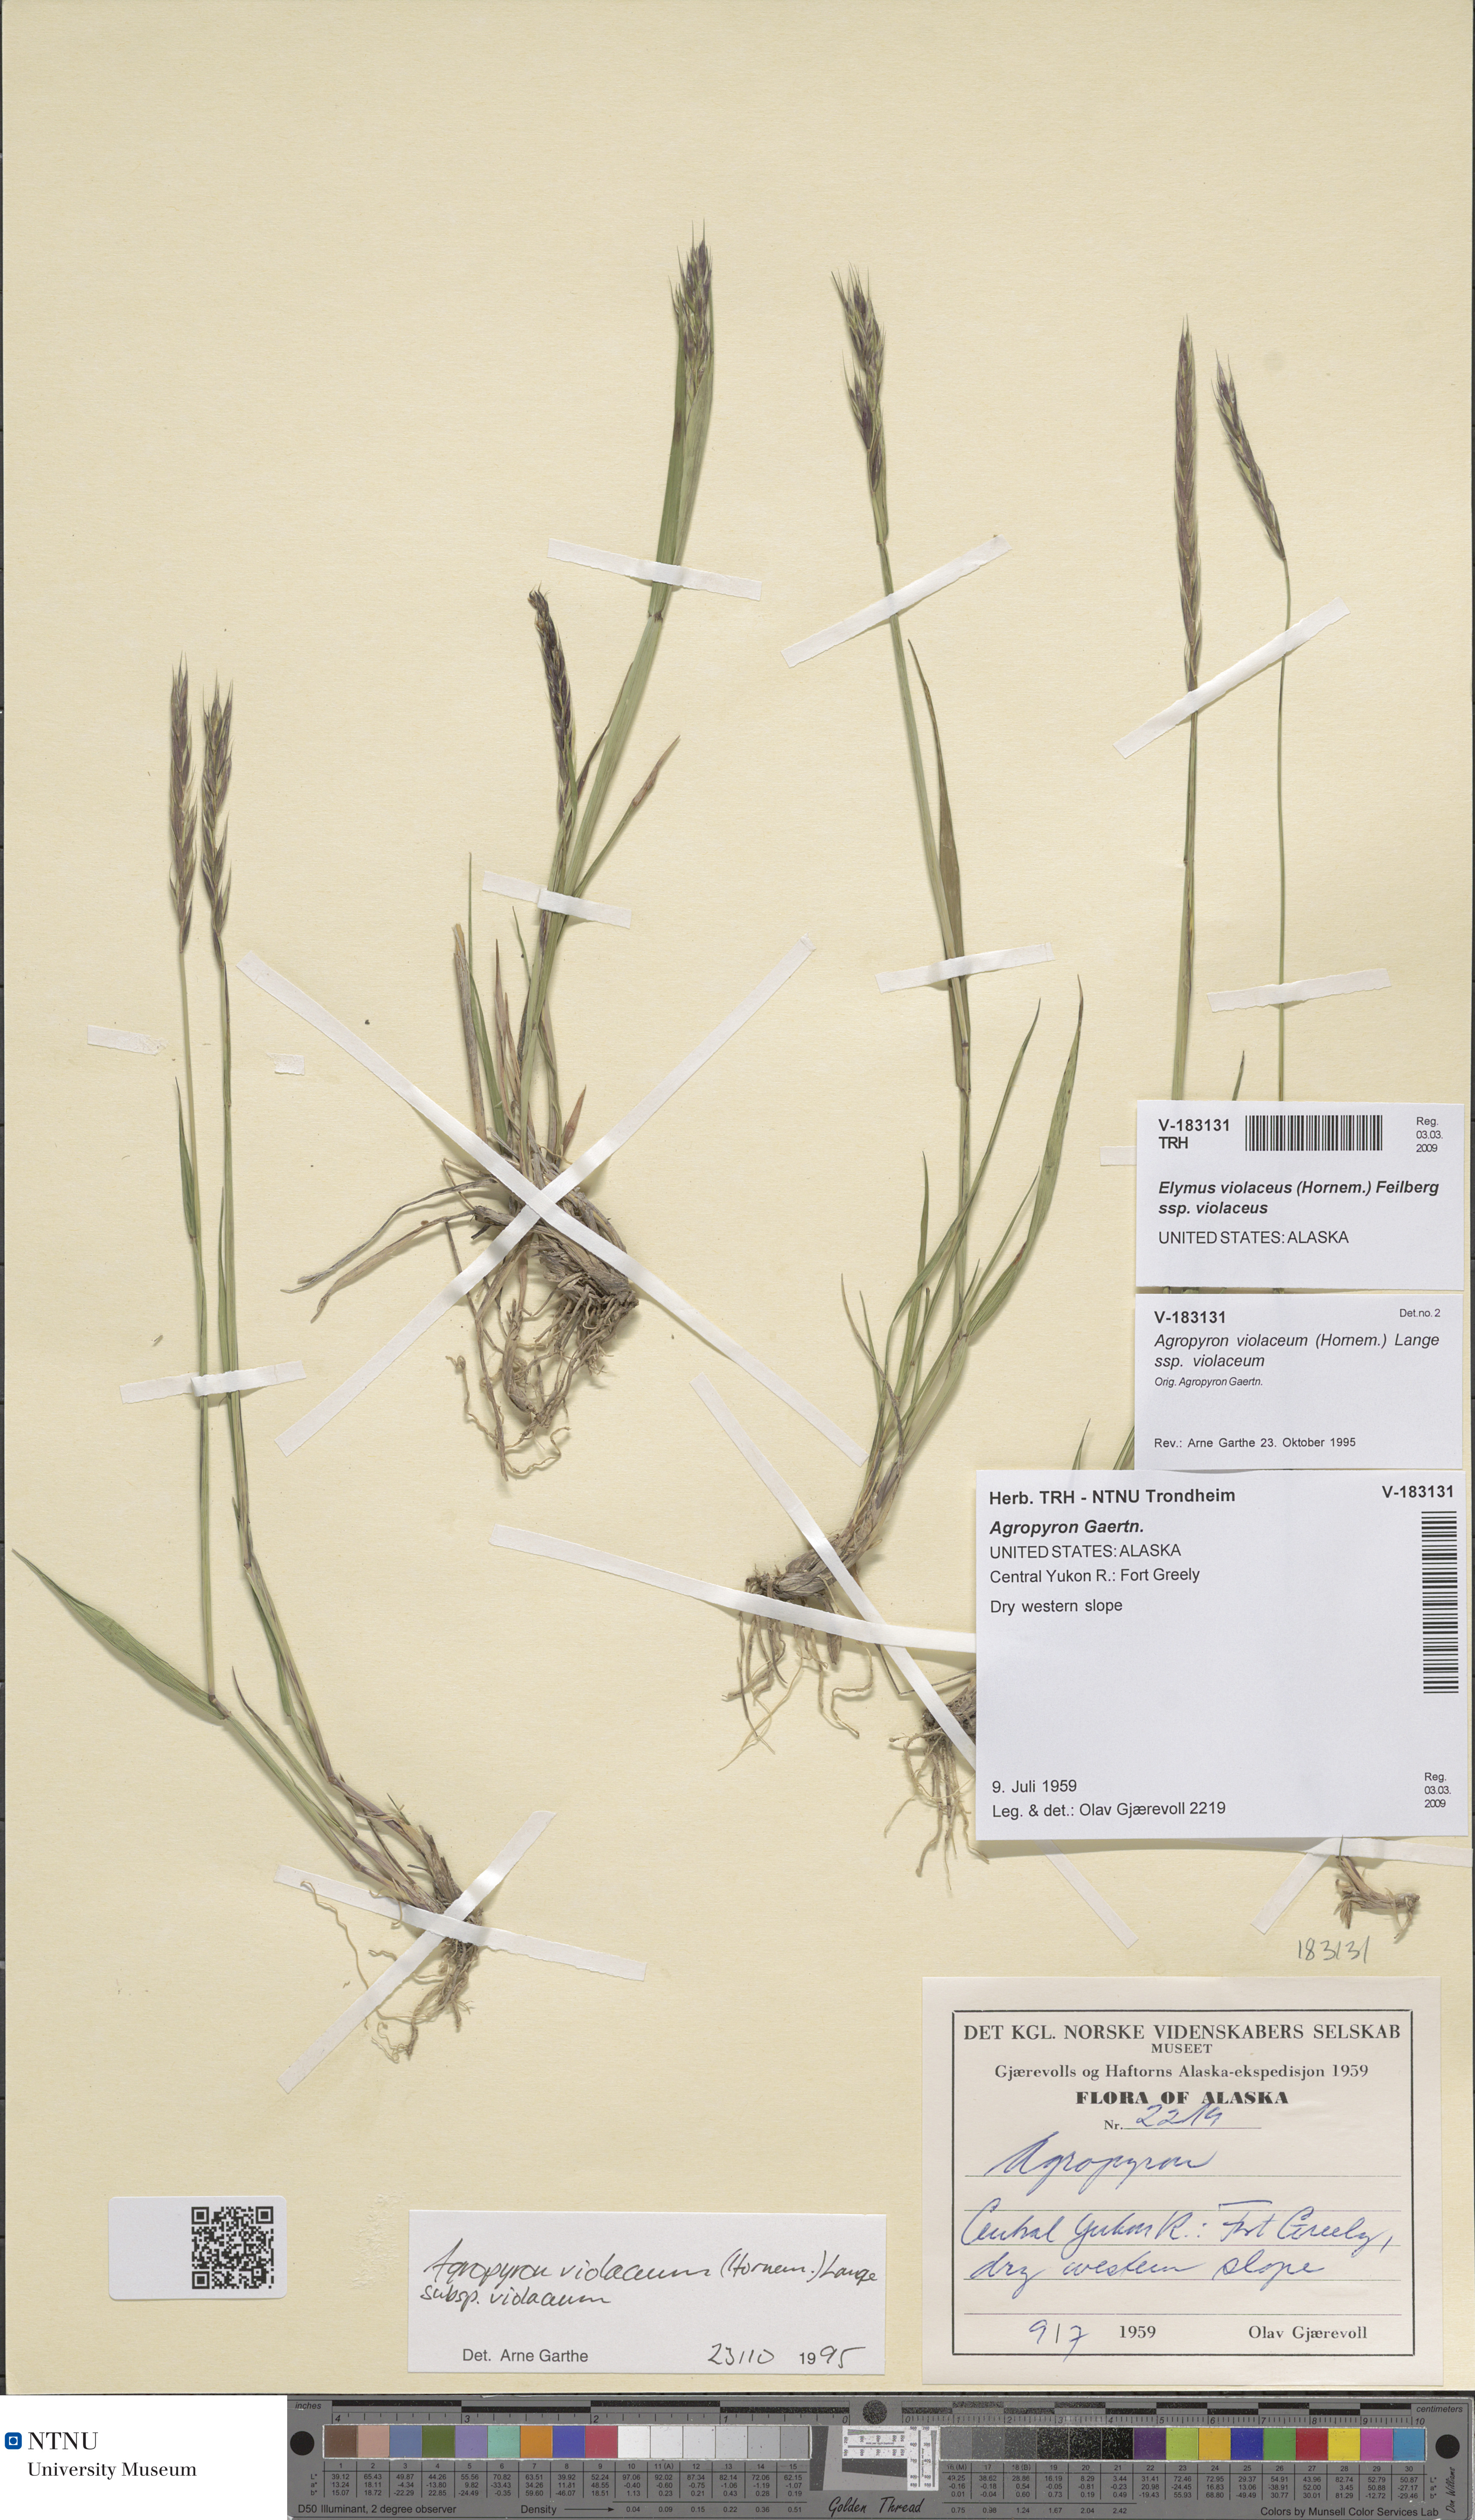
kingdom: Plantae
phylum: Tracheophyta
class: Liliopsida
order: Poales
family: Poaceae
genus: Elymus
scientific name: Elymus violaceus
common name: Arctic wheatgrass
